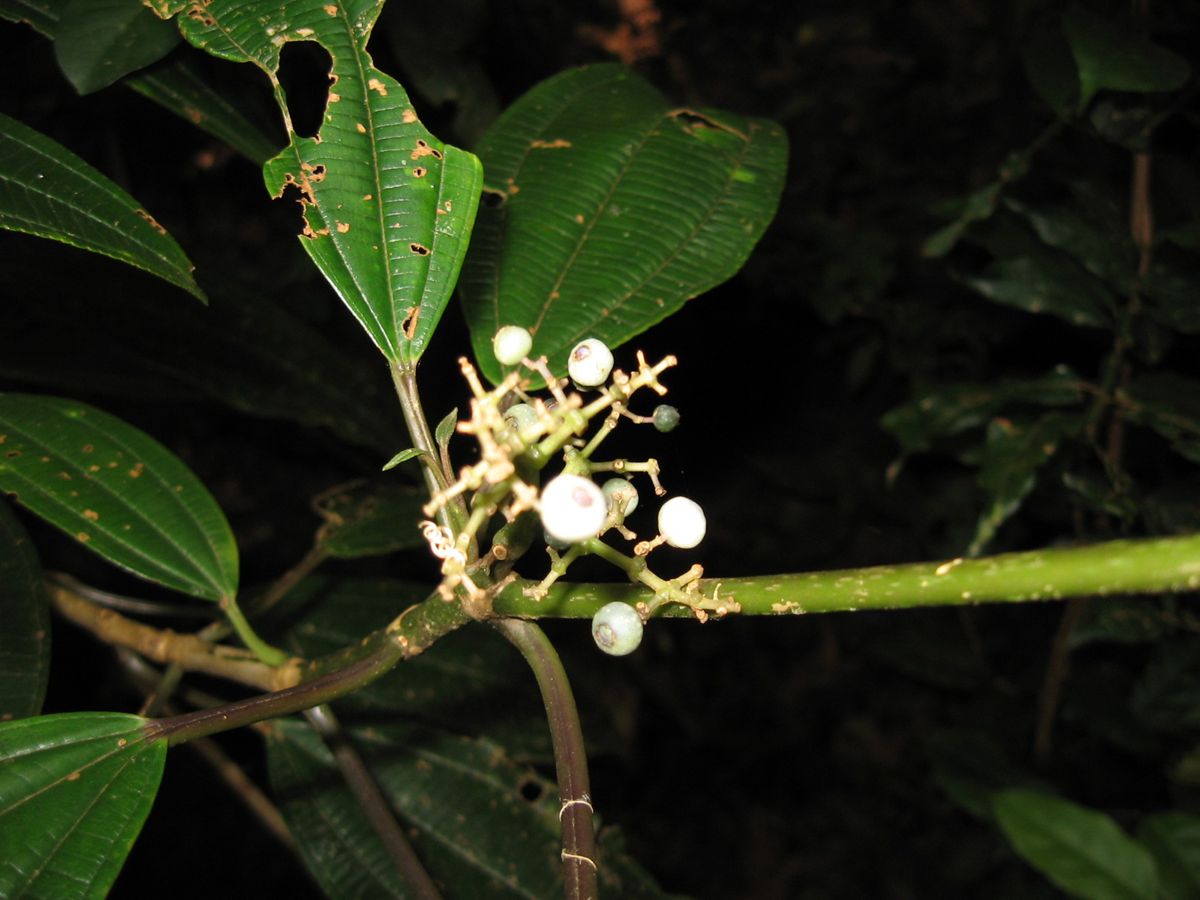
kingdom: Plantae
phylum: Tracheophyta
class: Magnoliopsida
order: Myrtales
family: Melastomataceae
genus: Miconia
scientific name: Miconia glaberrima
